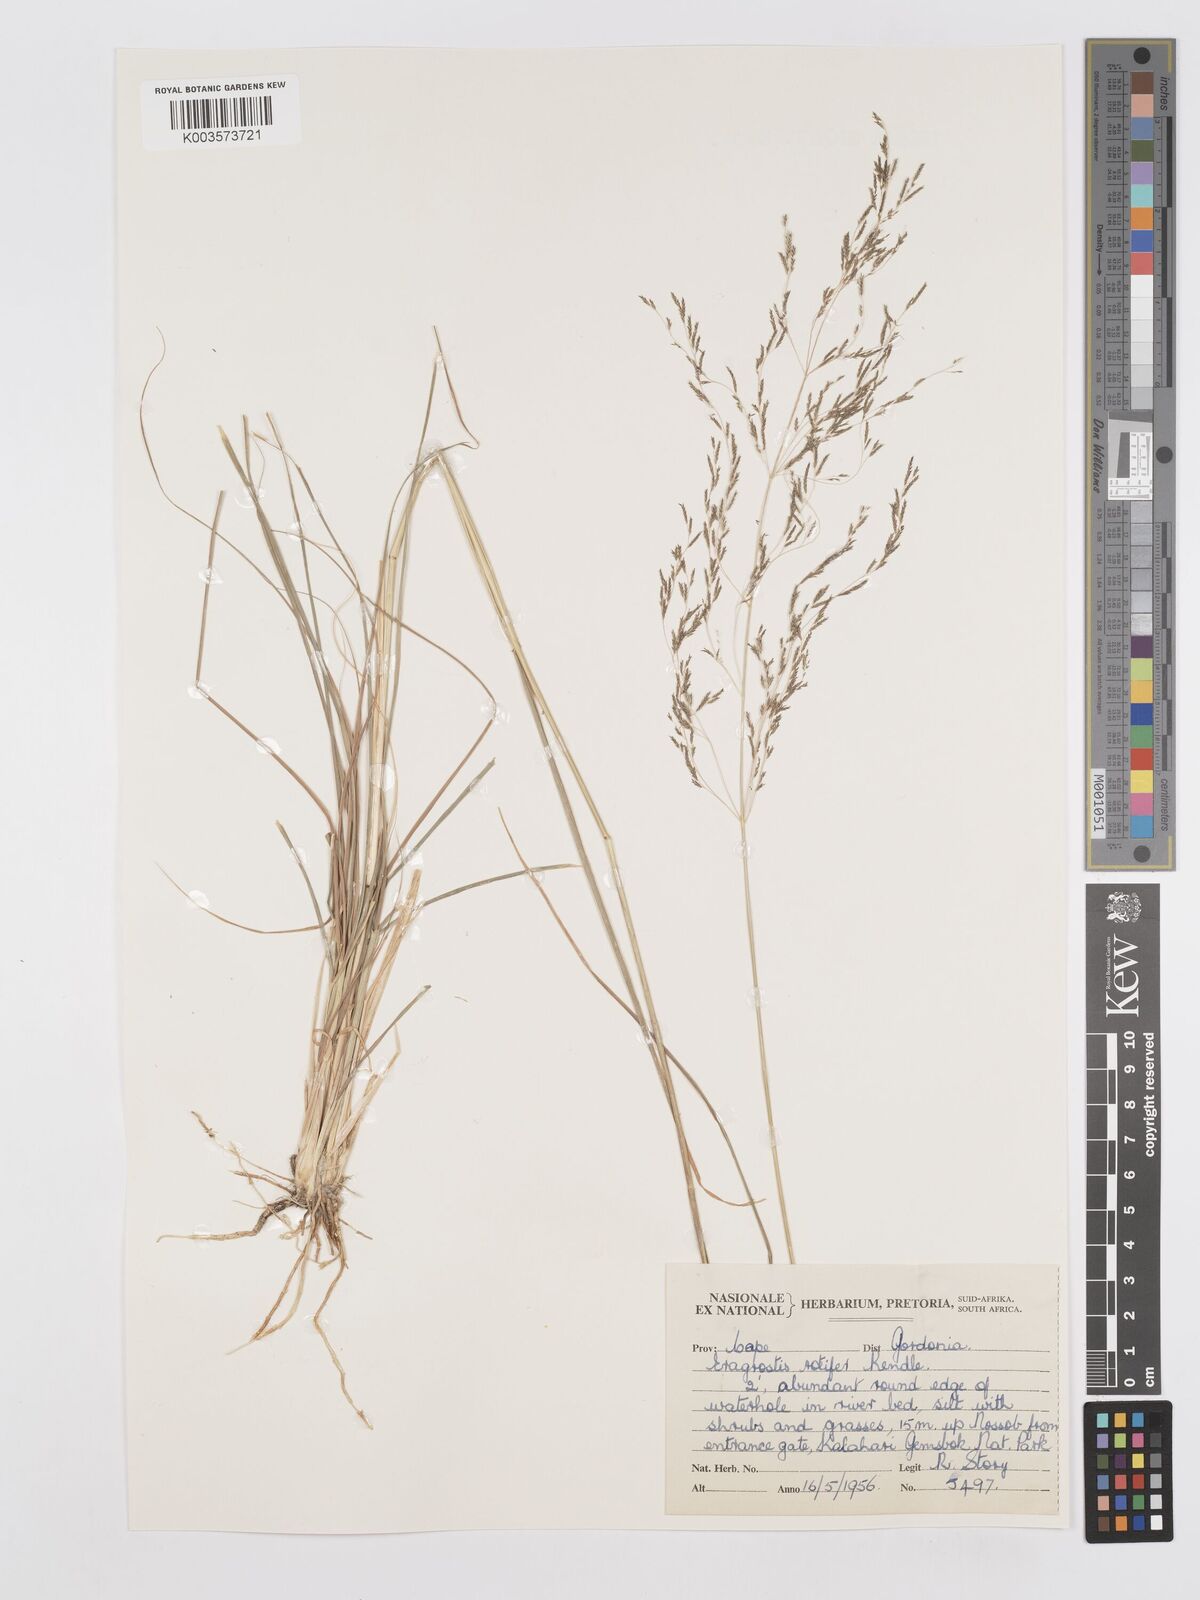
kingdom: Plantae
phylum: Tracheophyta
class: Liliopsida
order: Poales
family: Poaceae
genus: Eragrostis
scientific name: Eragrostis rotifer
